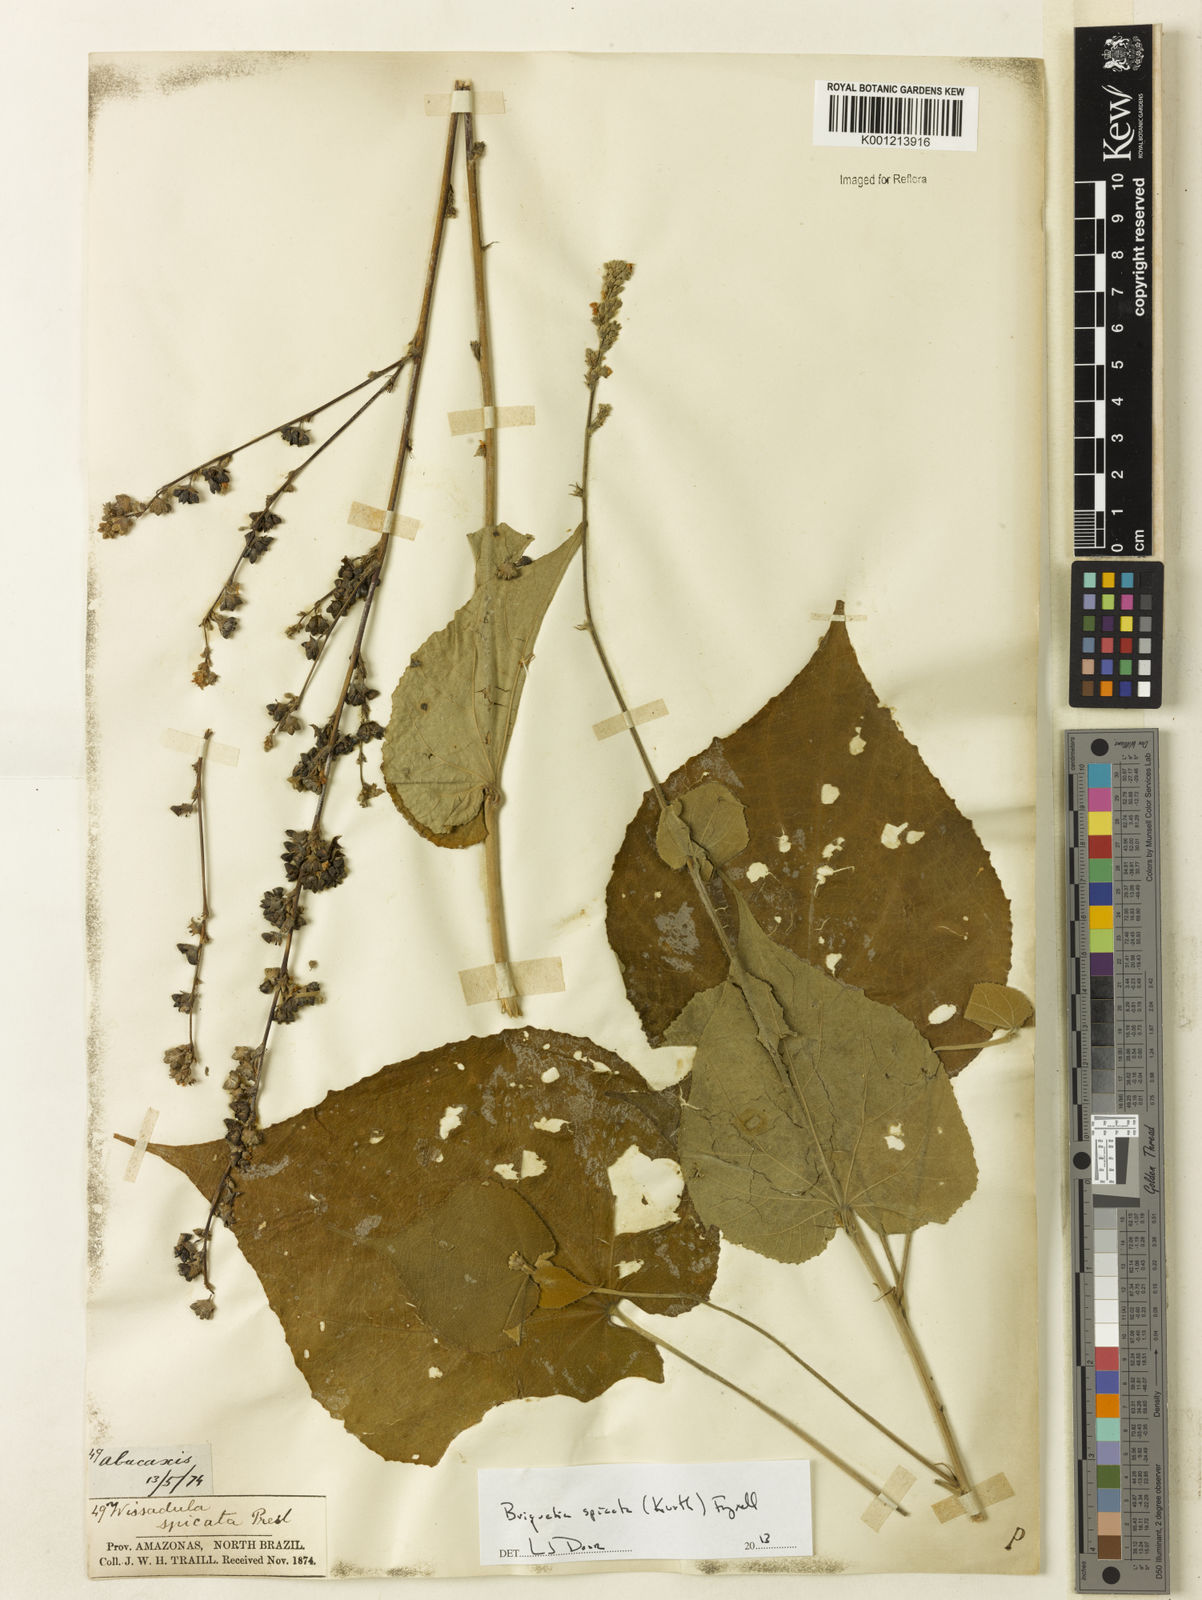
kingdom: Plantae
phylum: Tracheophyta
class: Magnoliopsida
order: Malvales
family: Malvaceae
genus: Allobriquetia
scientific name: Allobriquetia spicata
